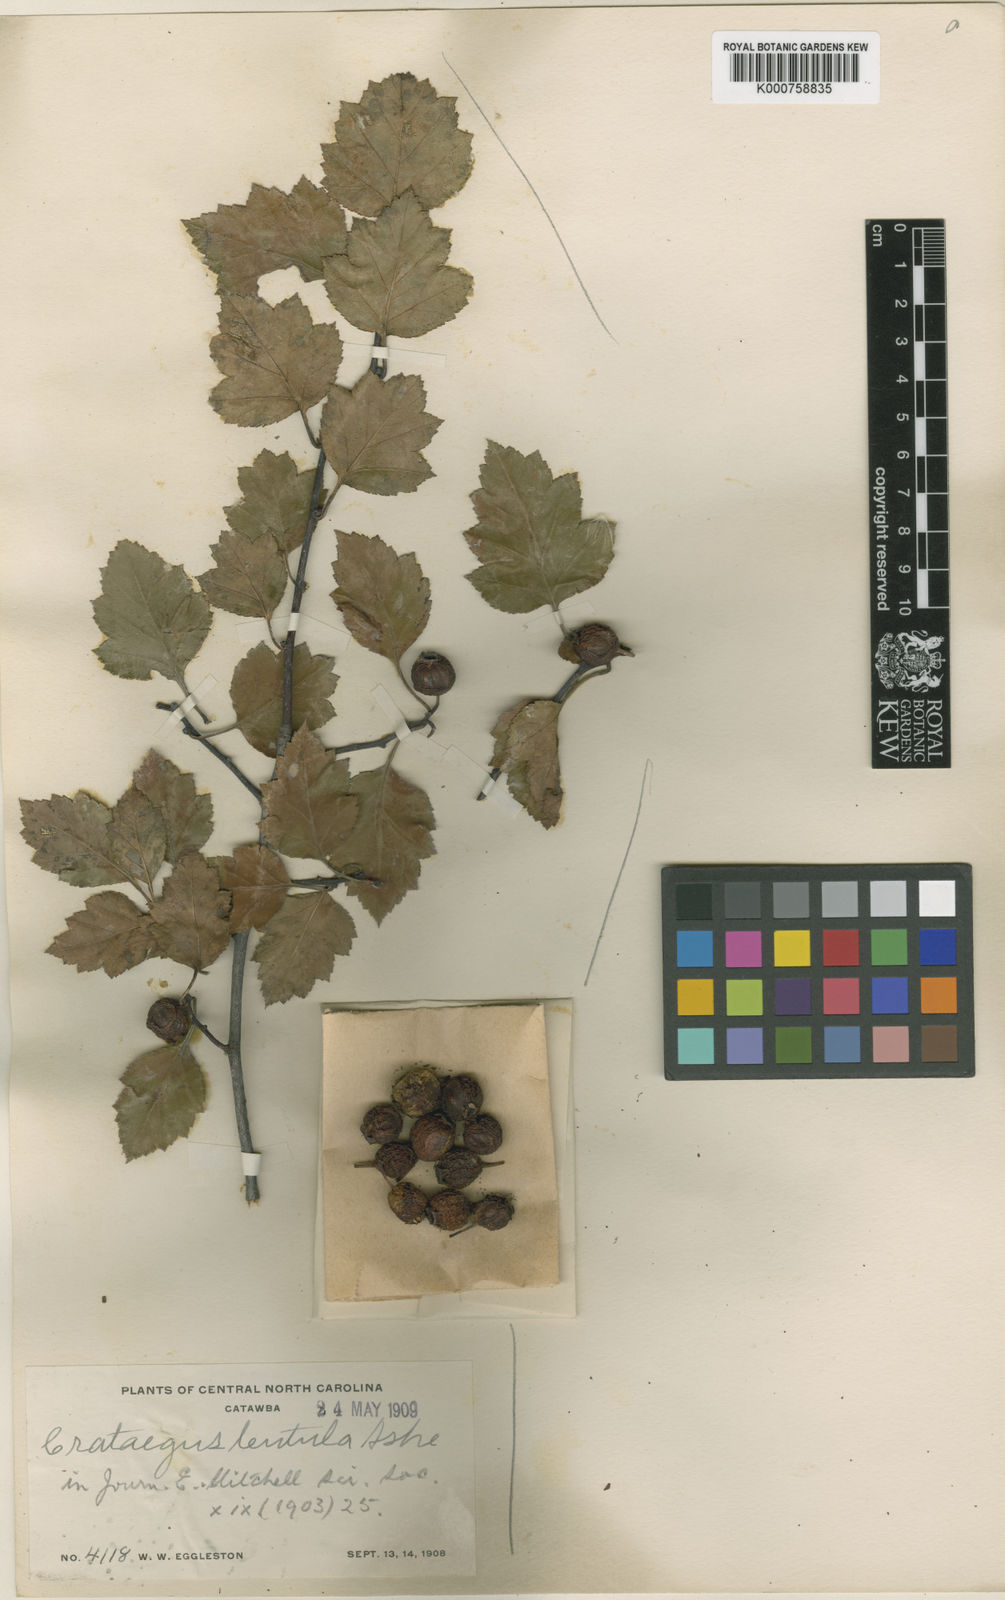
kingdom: Plantae
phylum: Tracheophyta
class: Magnoliopsida
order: Rosales
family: Rosaceae
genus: Crataegus
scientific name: Crataegus lentula
